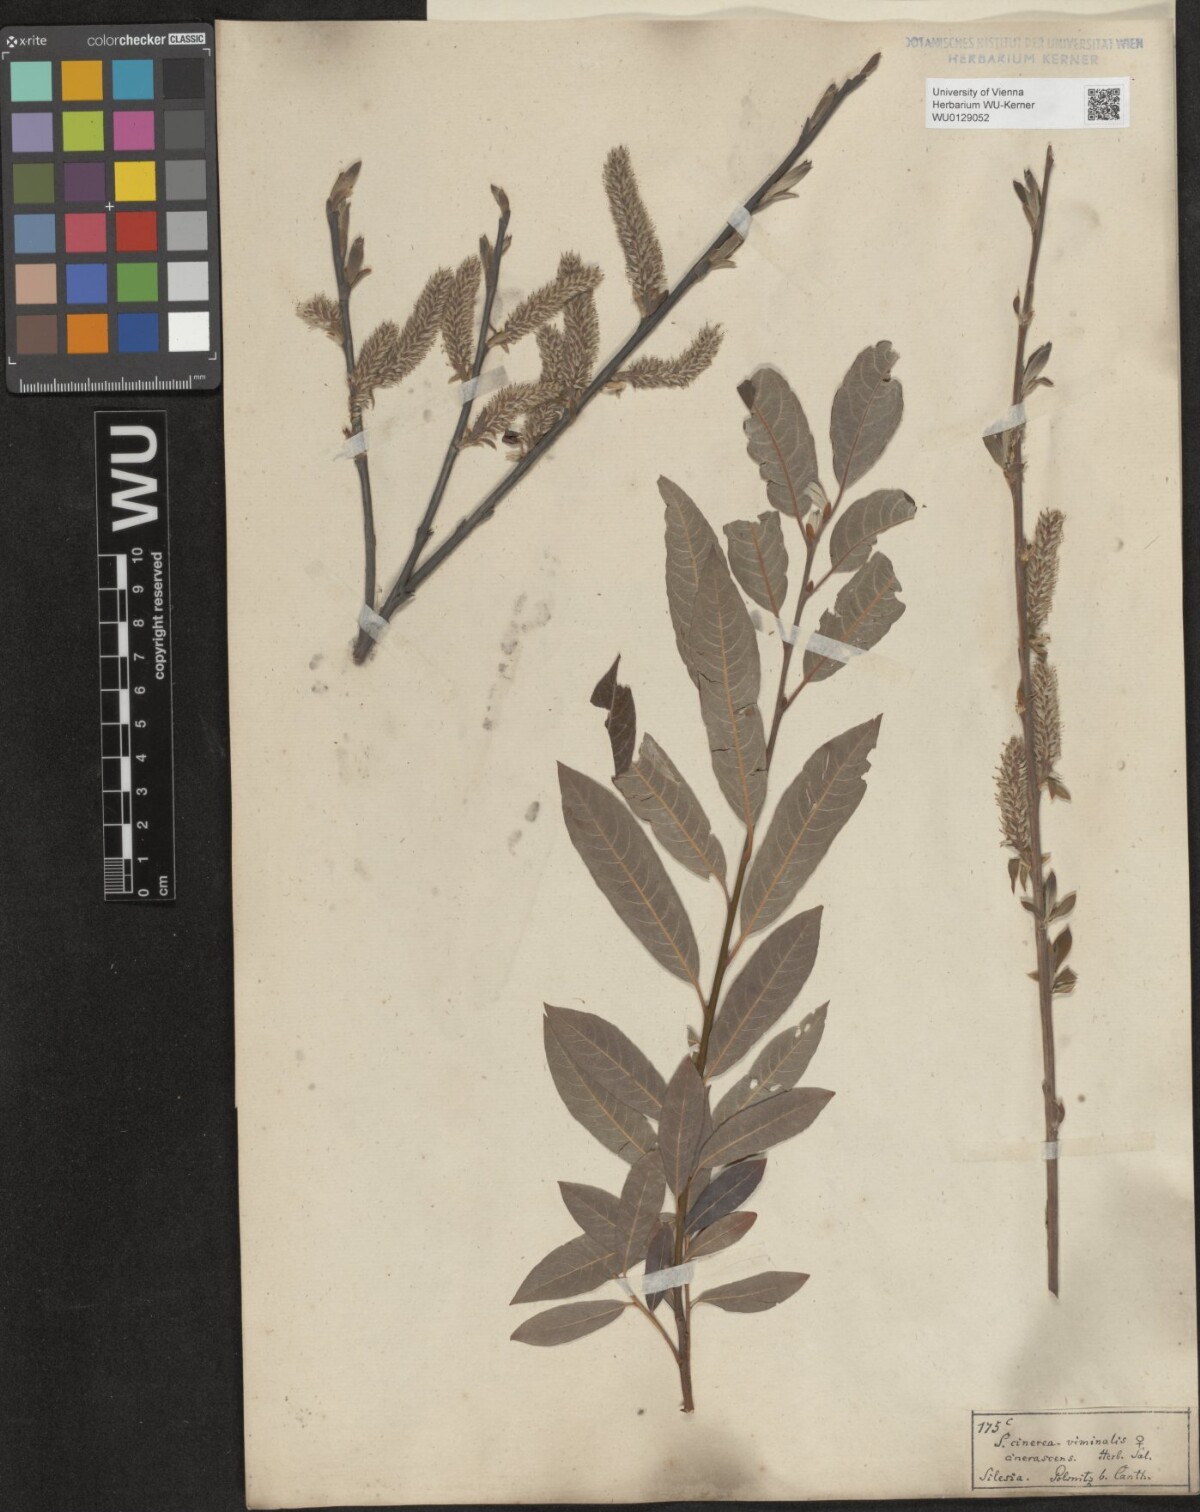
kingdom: Plantae
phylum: Tracheophyta
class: Magnoliopsida
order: Malpighiales
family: Salicaceae
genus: Salix
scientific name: Salix
